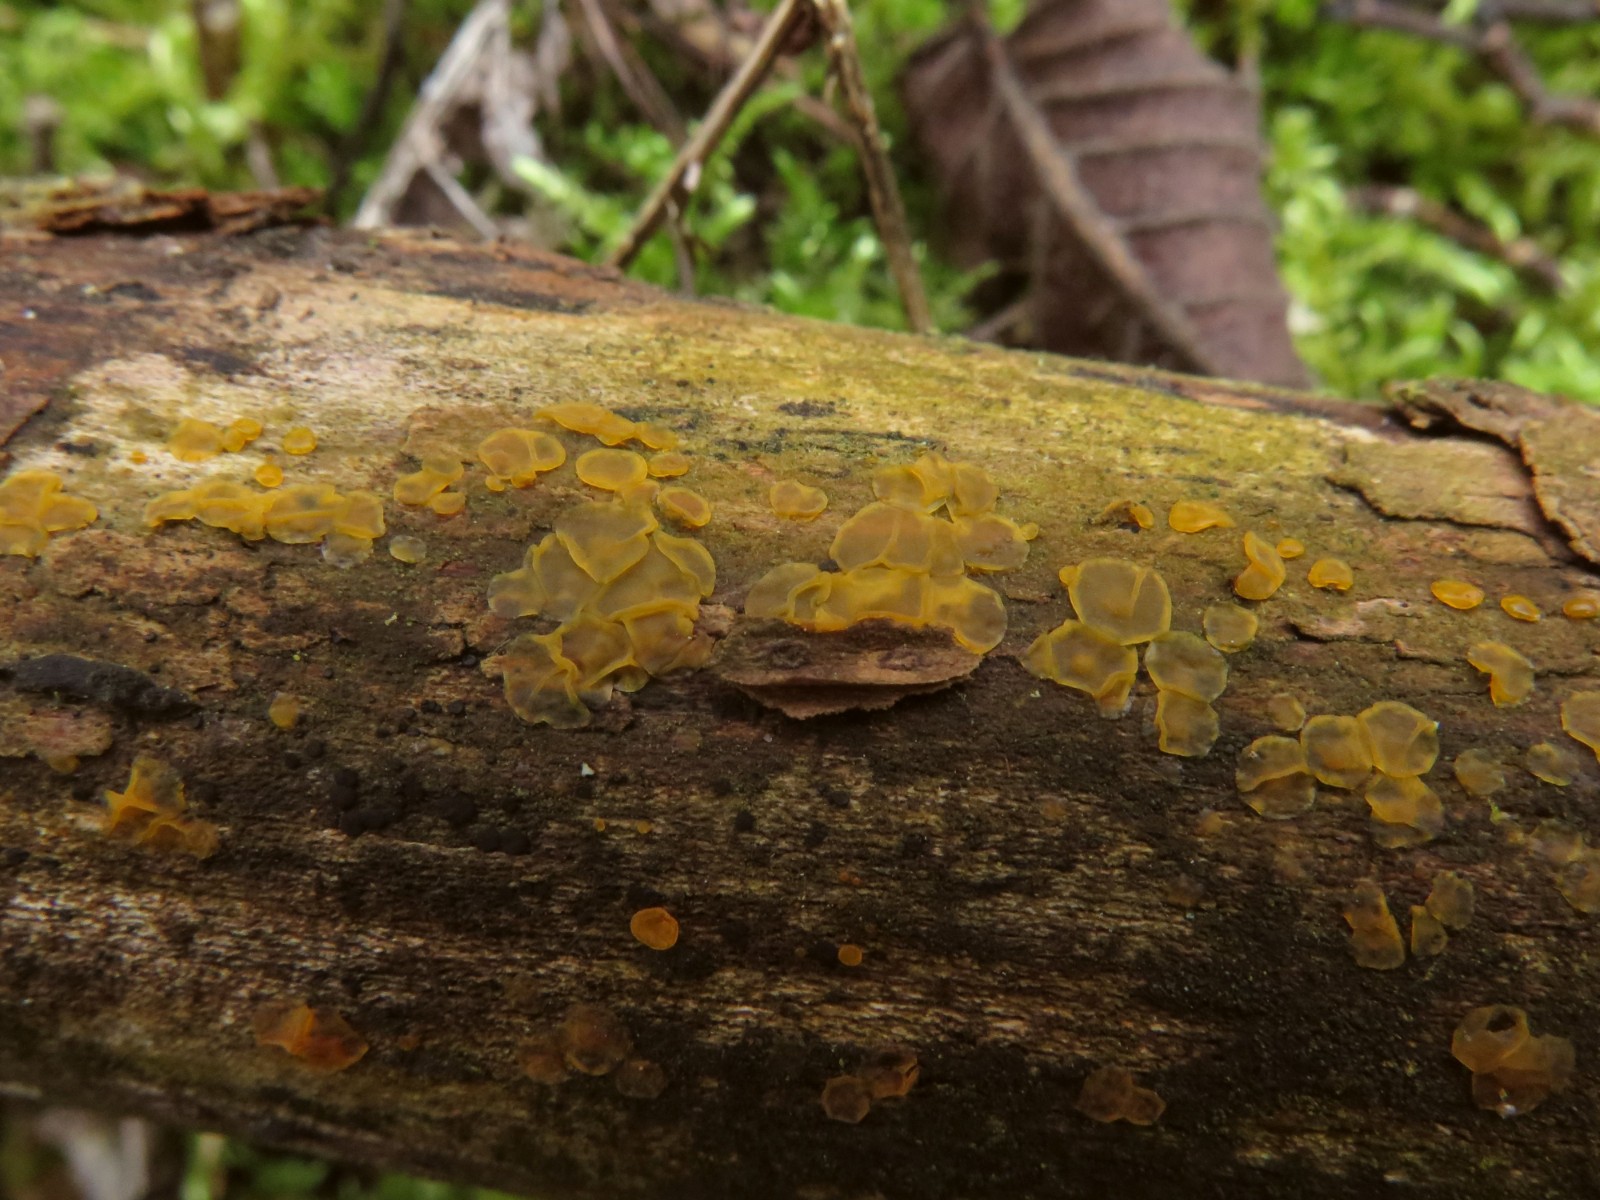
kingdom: Fungi
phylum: Basidiomycota
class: Dacrymycetes
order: Dacrymycetales
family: Dacrymycetaceae
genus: Dacrymyces
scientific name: Dacrymyces lacrymalis
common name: rynket tåresvamp
